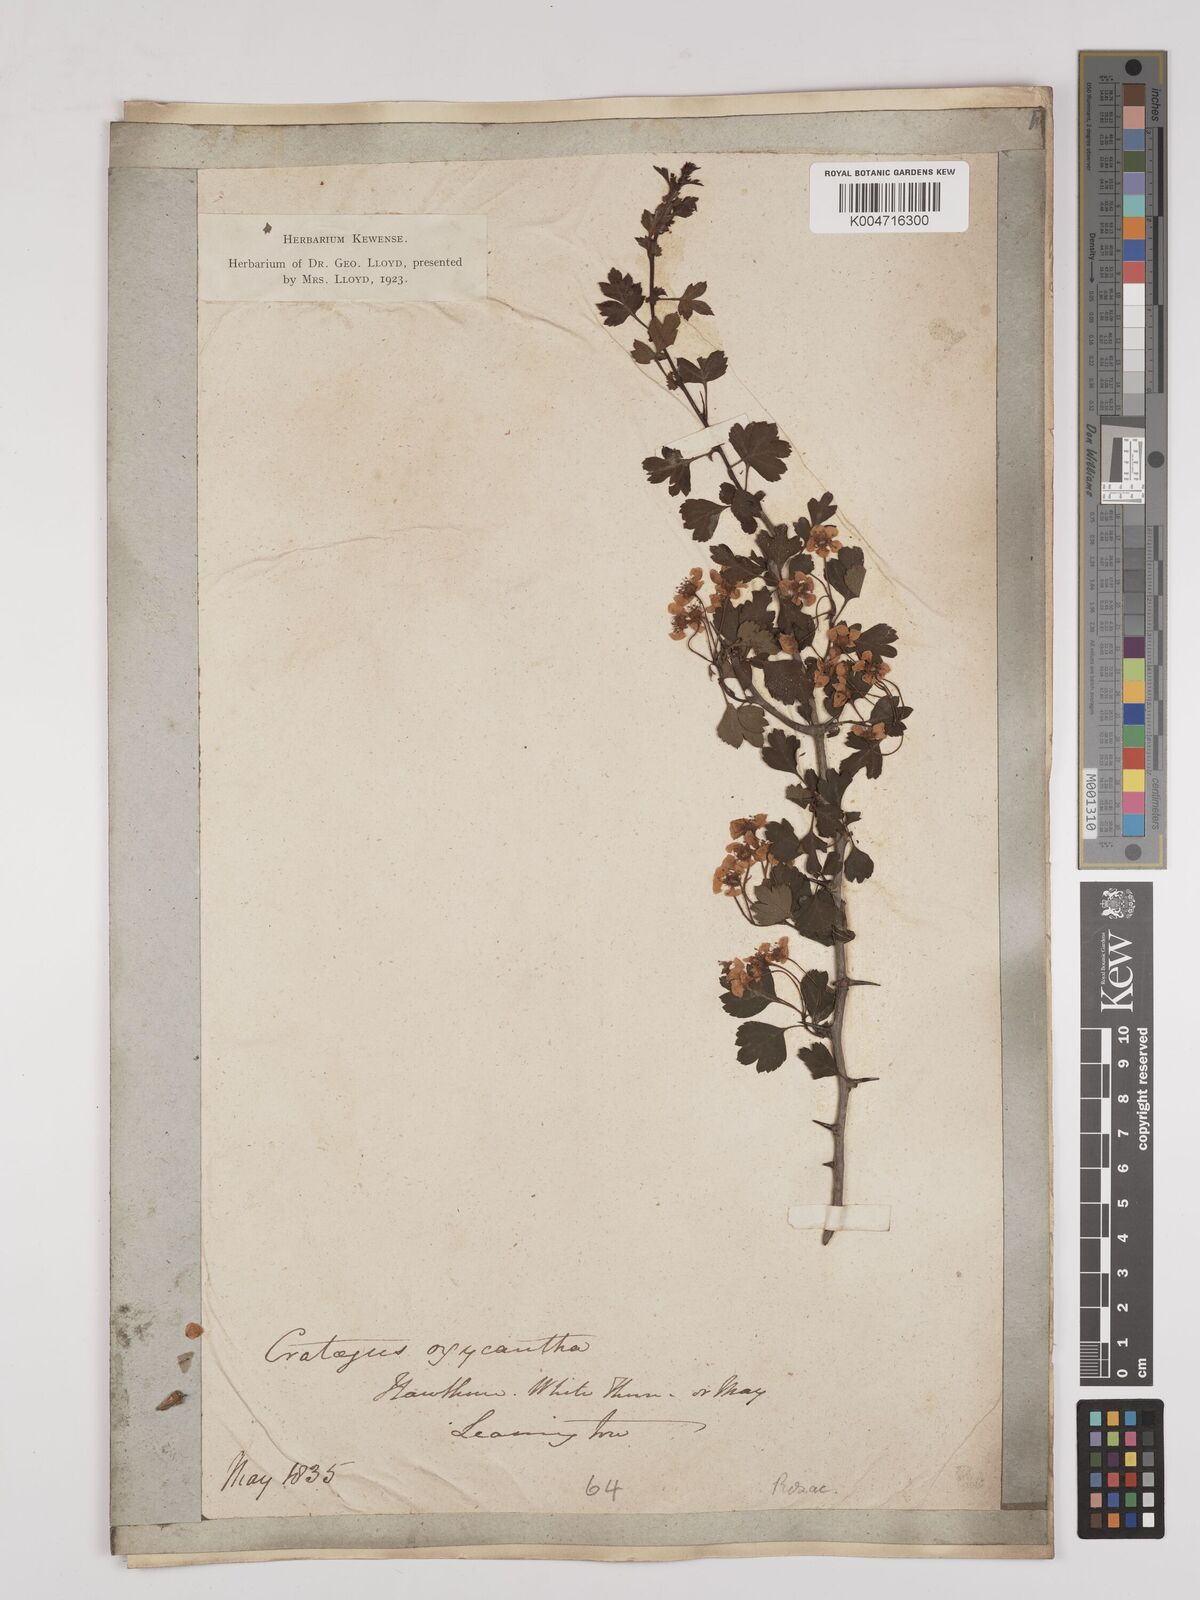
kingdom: Plantae
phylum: Tracheophyta
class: Magnoliopsida
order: Rosales
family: Rosaceae
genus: Crataegus
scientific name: Crataegus monogyna
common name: Hawthorn
